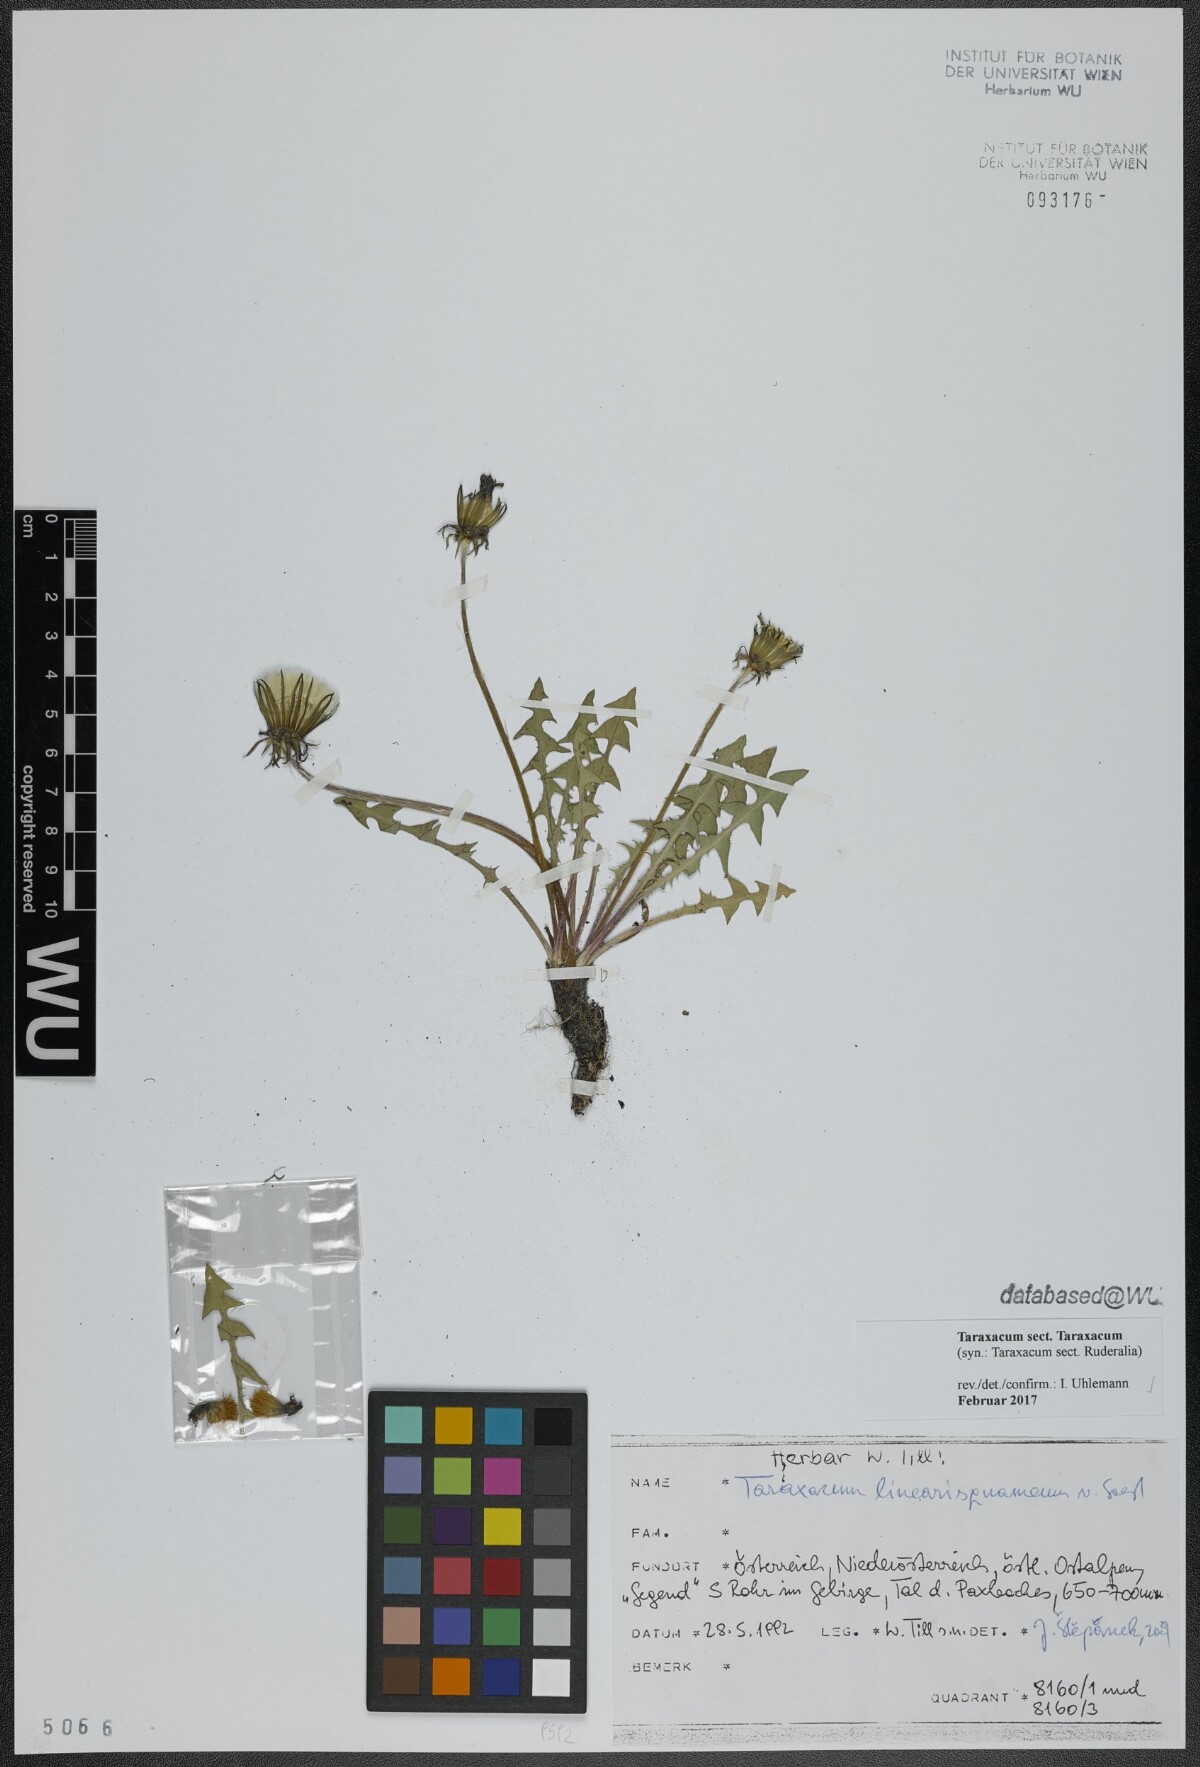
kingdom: Plantae
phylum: Tracheophyta
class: Magnoliopsida
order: Asterales
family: Asteraceae
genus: Taraxacum
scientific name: Taraxacum
